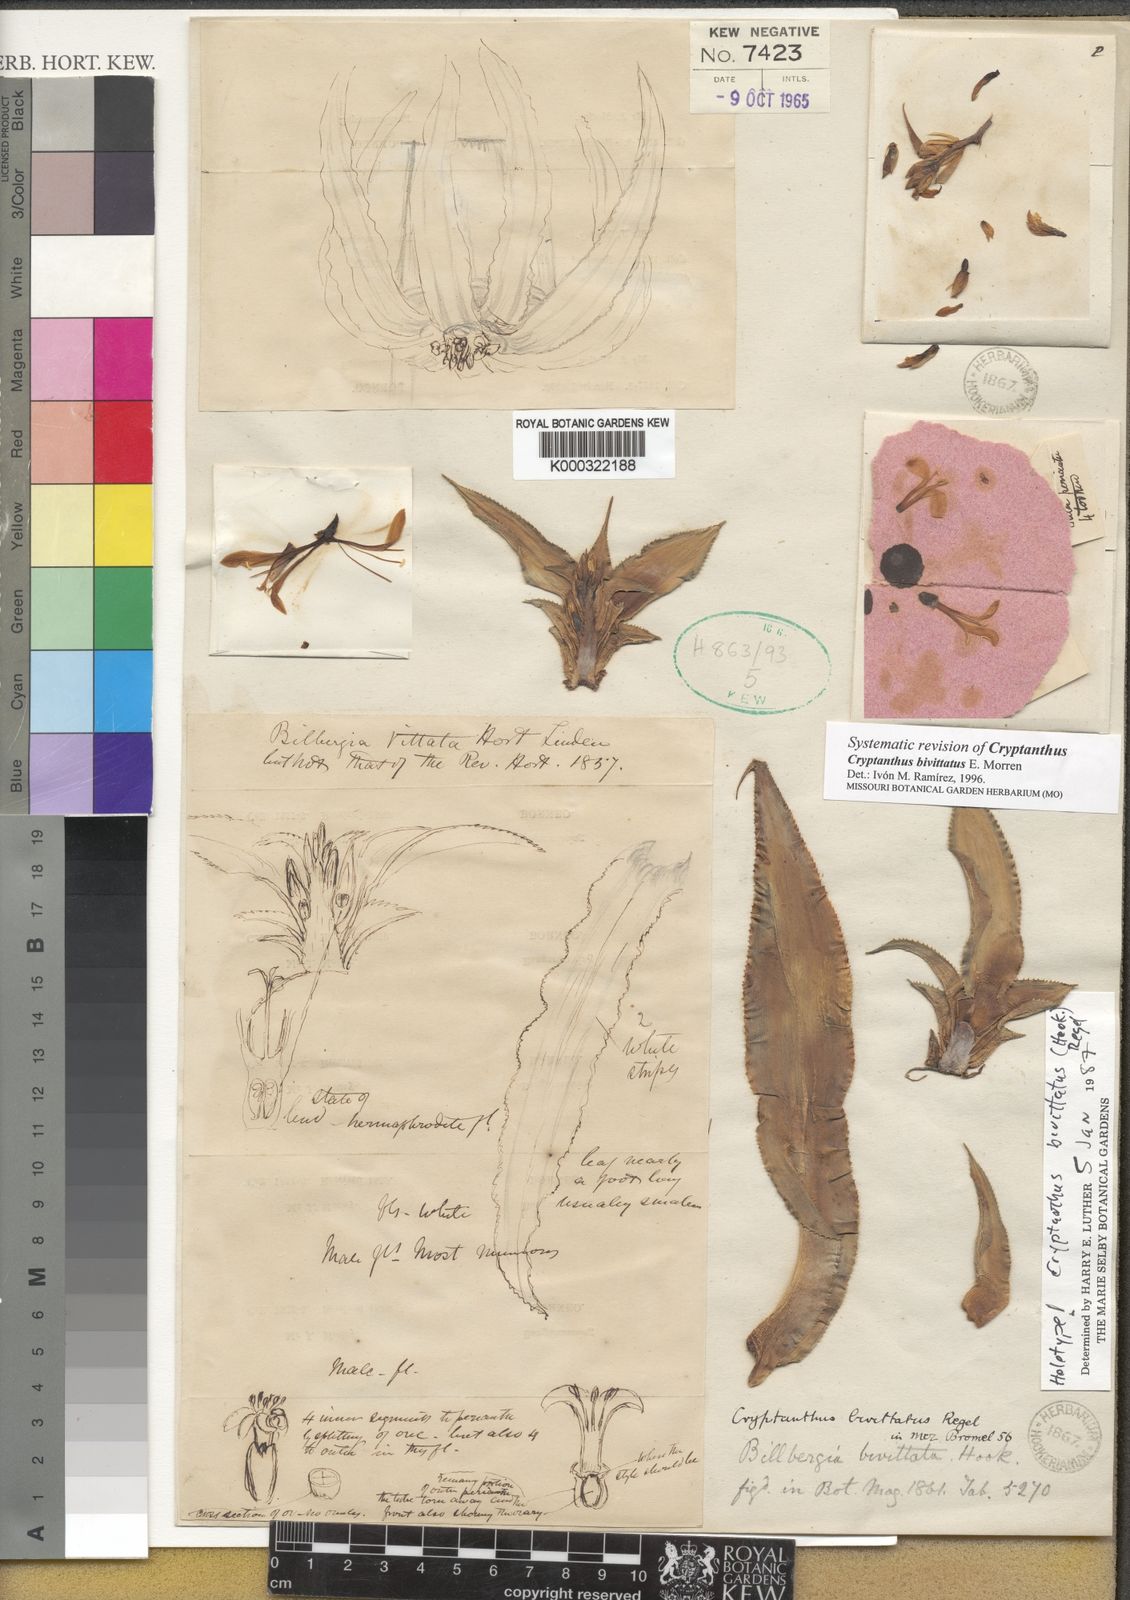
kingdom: Plantae
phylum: Tracheophyta
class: Liliopsida
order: Poales
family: Bromeliaceae
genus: Cryptanthus
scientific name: Cryptanthus bivittatus
